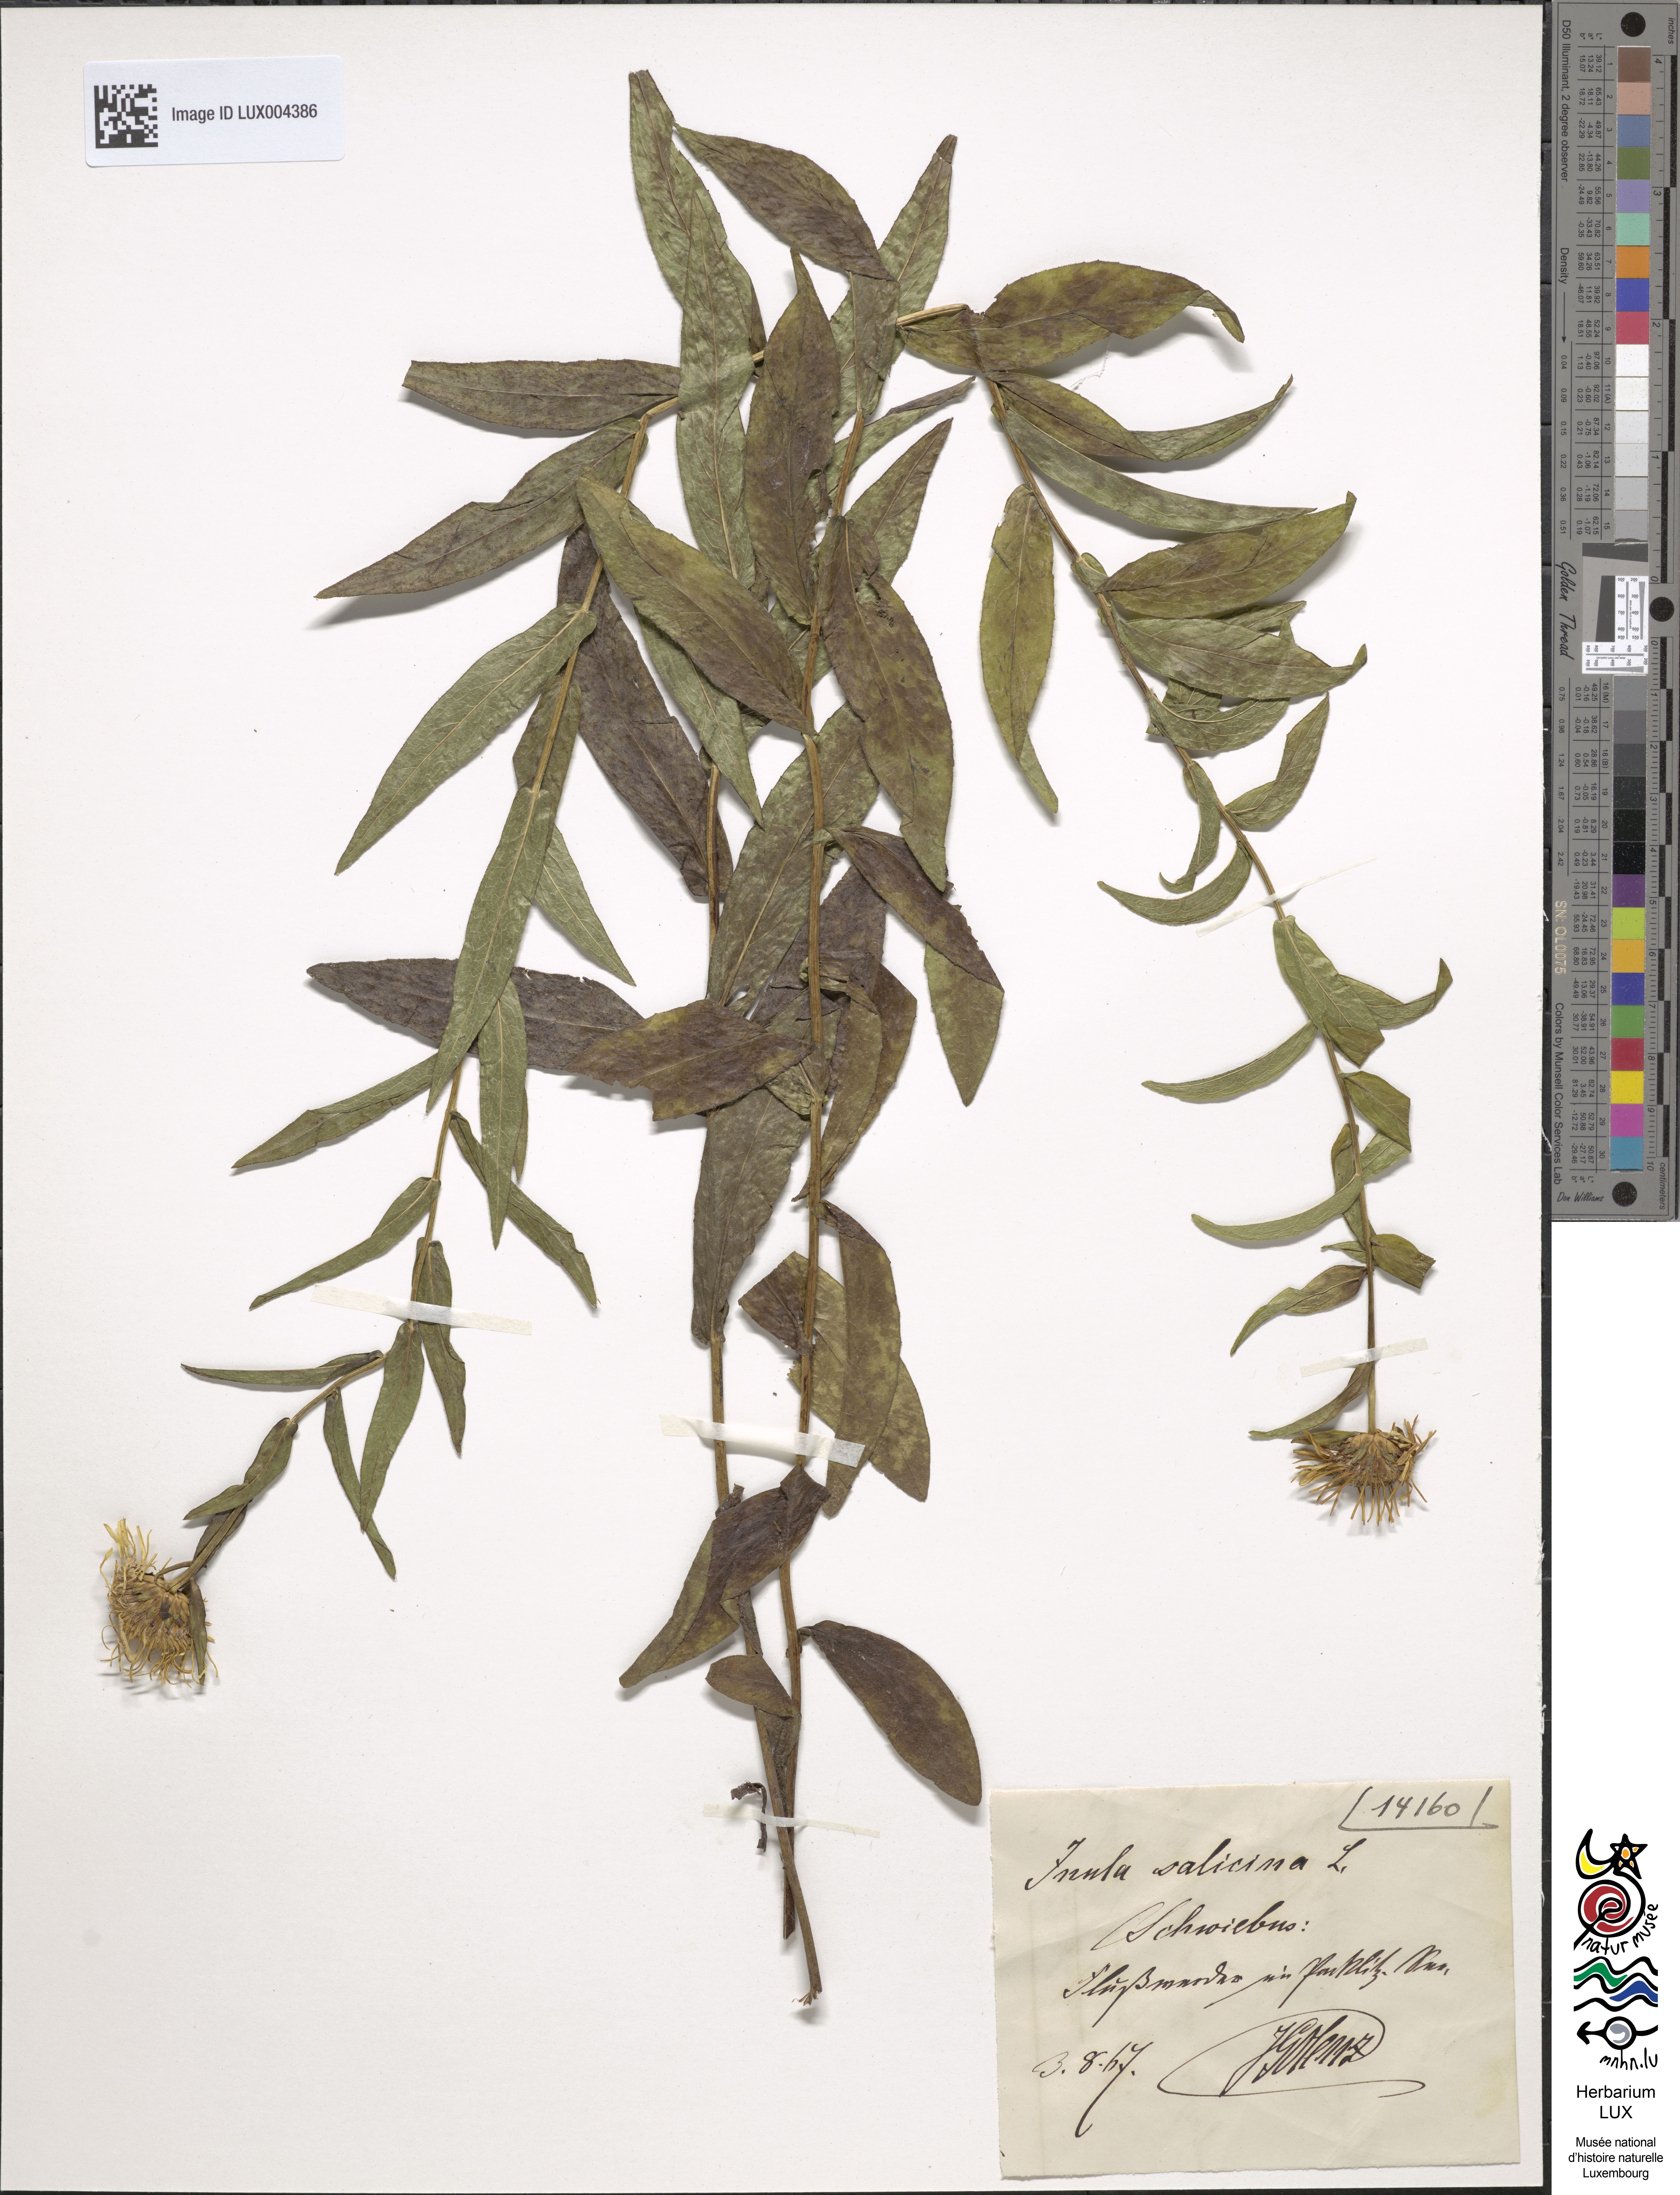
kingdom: Plantae
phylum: Tracheophyta
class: Magnoliopsida
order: Asterales
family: Asteraceae
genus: Pentanema
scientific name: Pentanema salicinum
